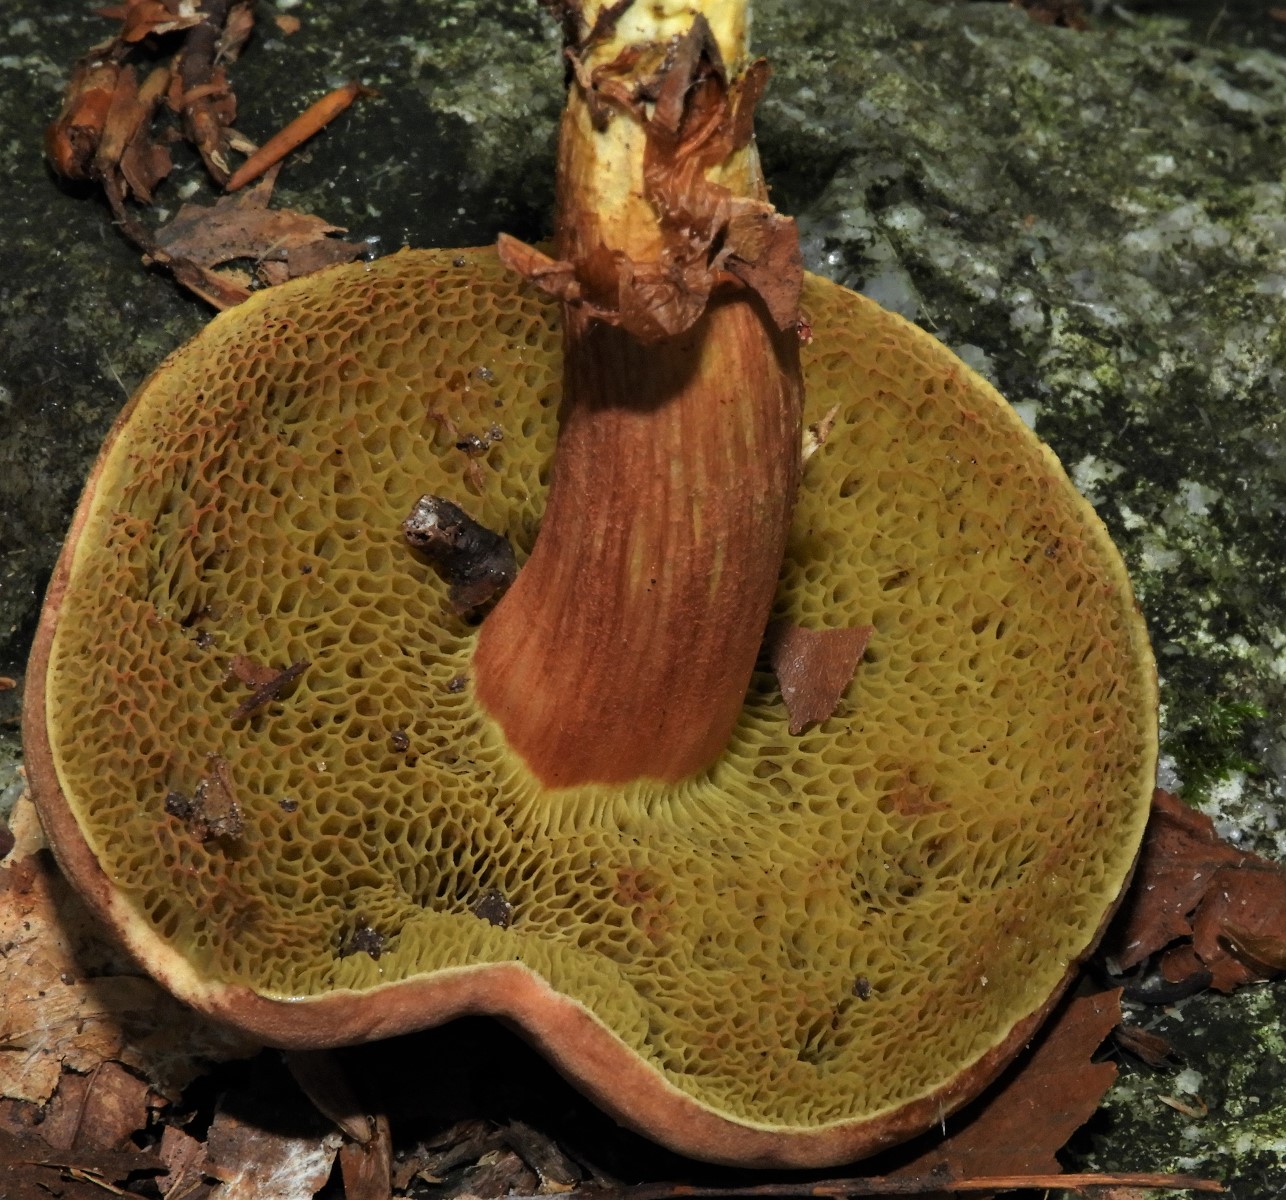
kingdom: Fungi
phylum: Basidiomycota
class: Agaricomycetes
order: Boletales
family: Boletaceae
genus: Xerocomellus
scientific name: Xerocomellus chrysenteron
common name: rødsprukken rørhat
